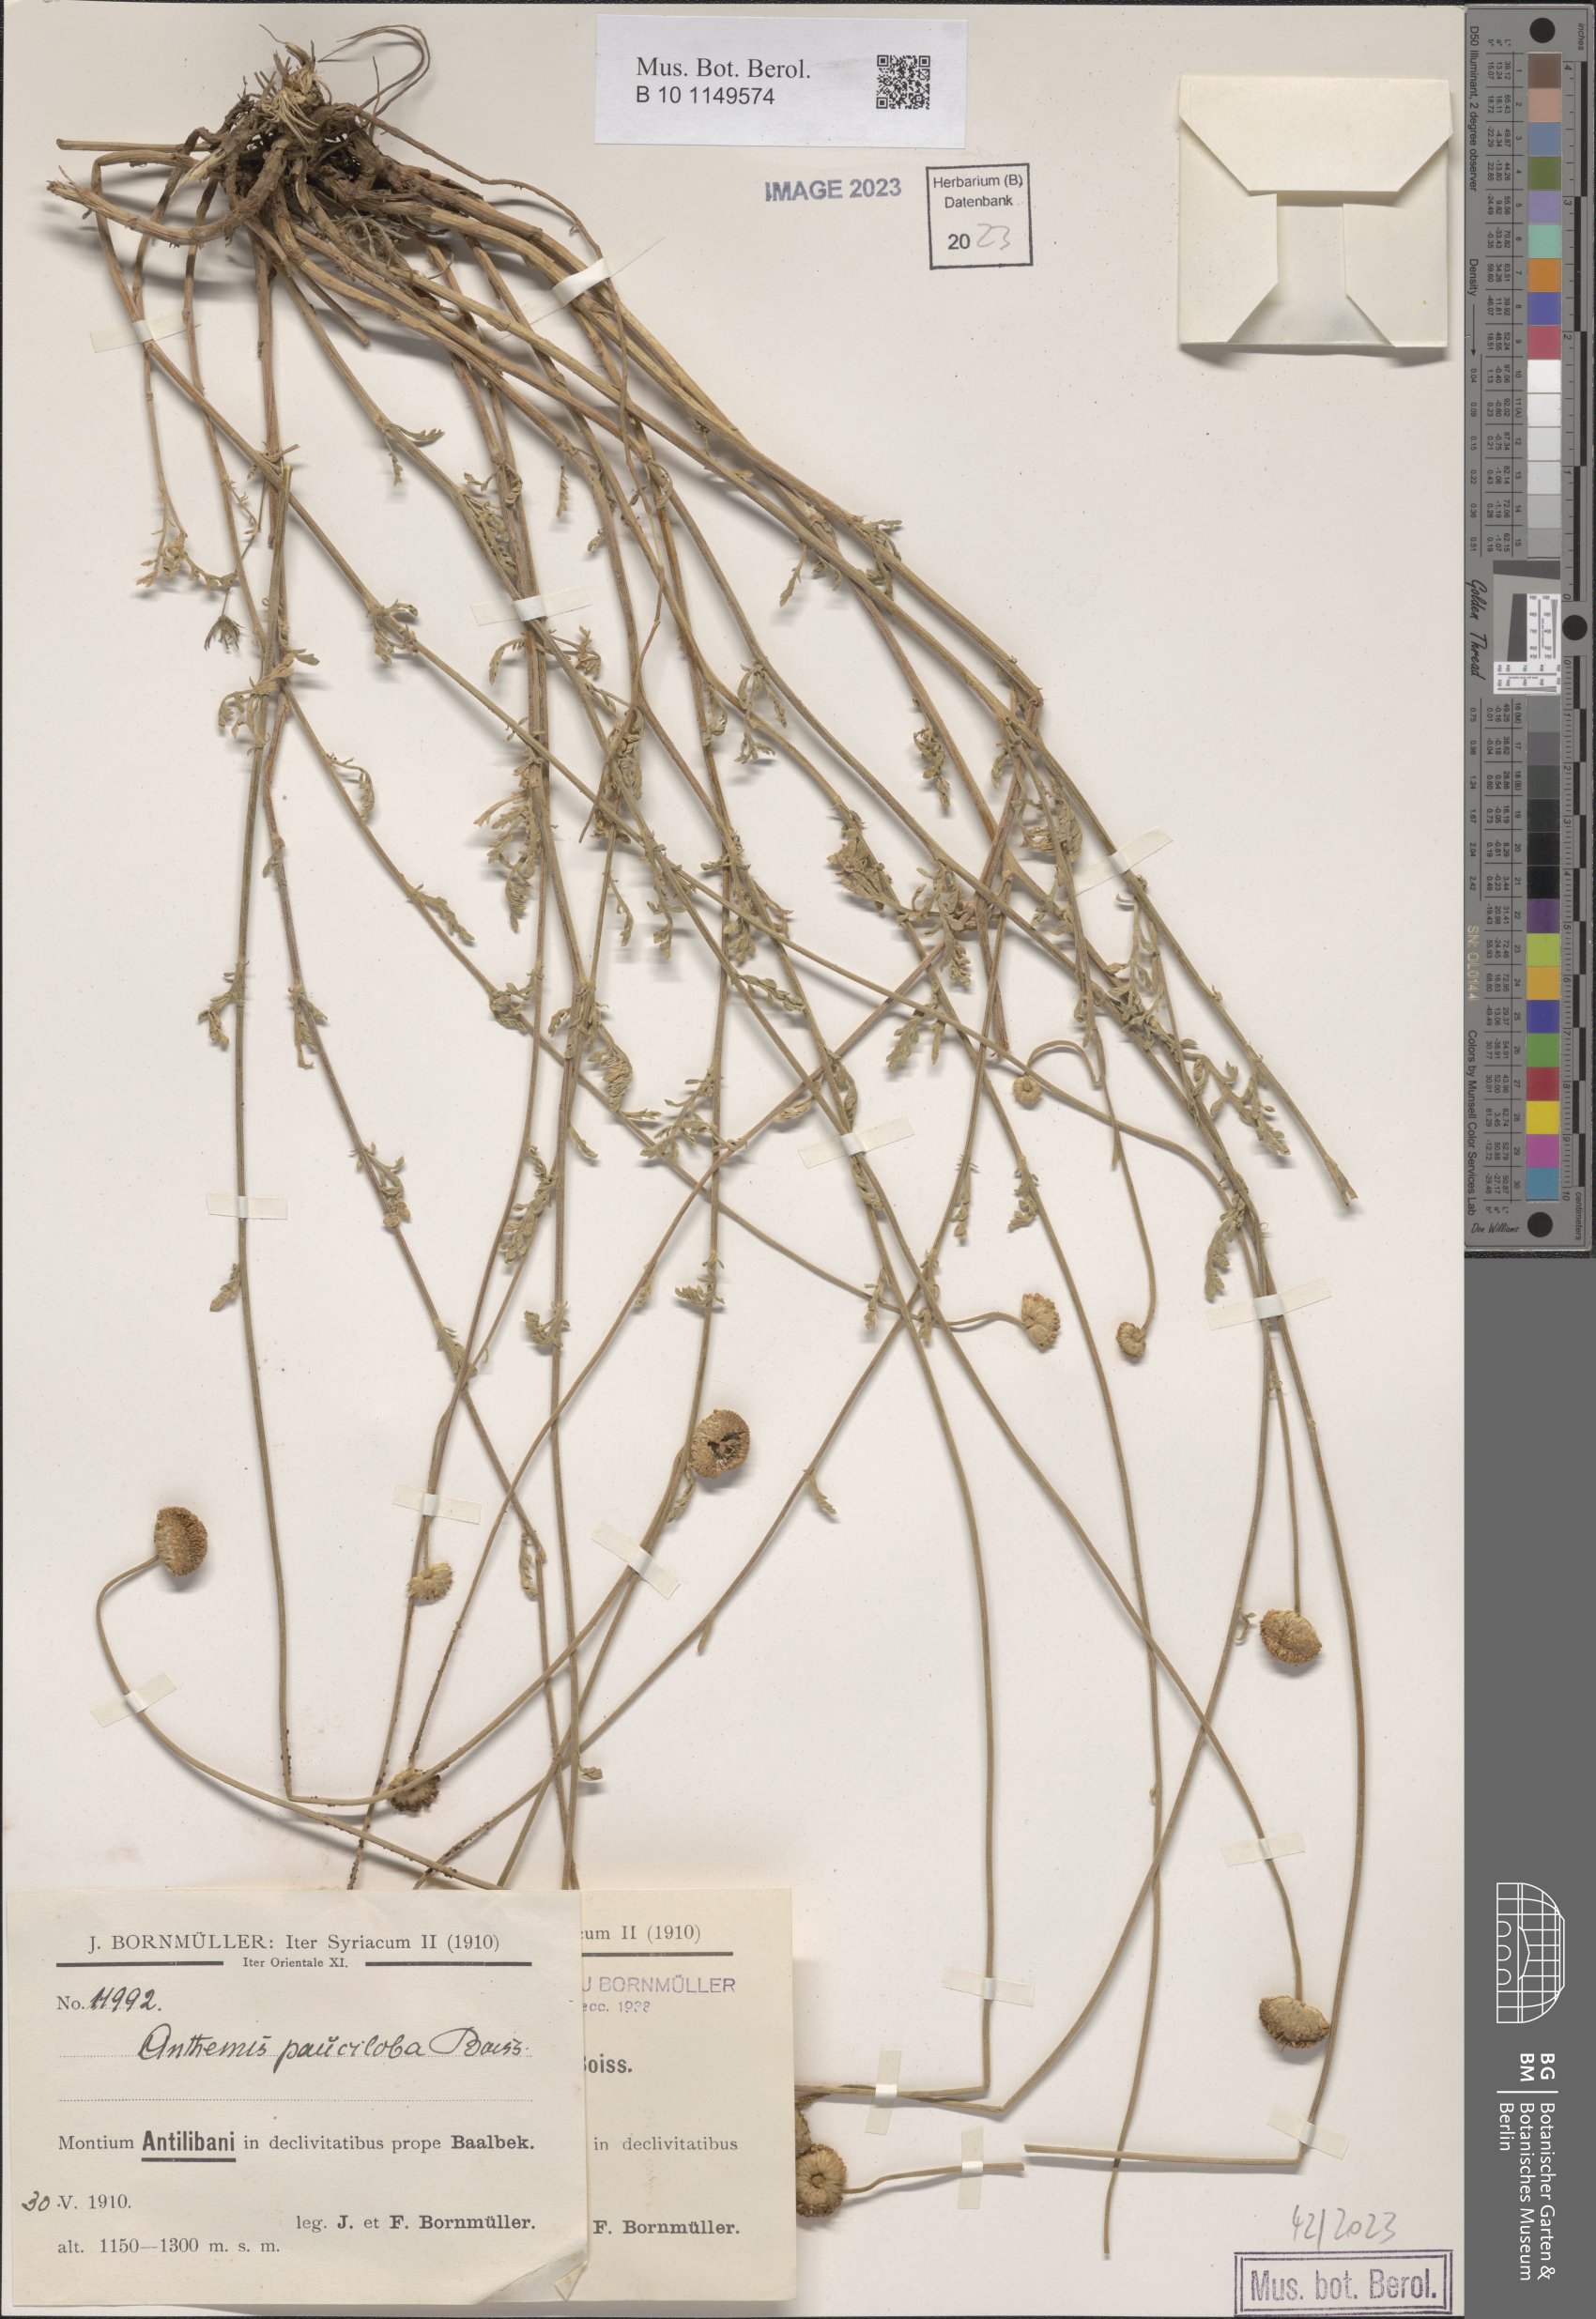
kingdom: Plantae
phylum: Tracheophyta
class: Magnoliopsida
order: Asterales
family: Asteraceae
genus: Anthemis
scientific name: Anthemis pauciloba
